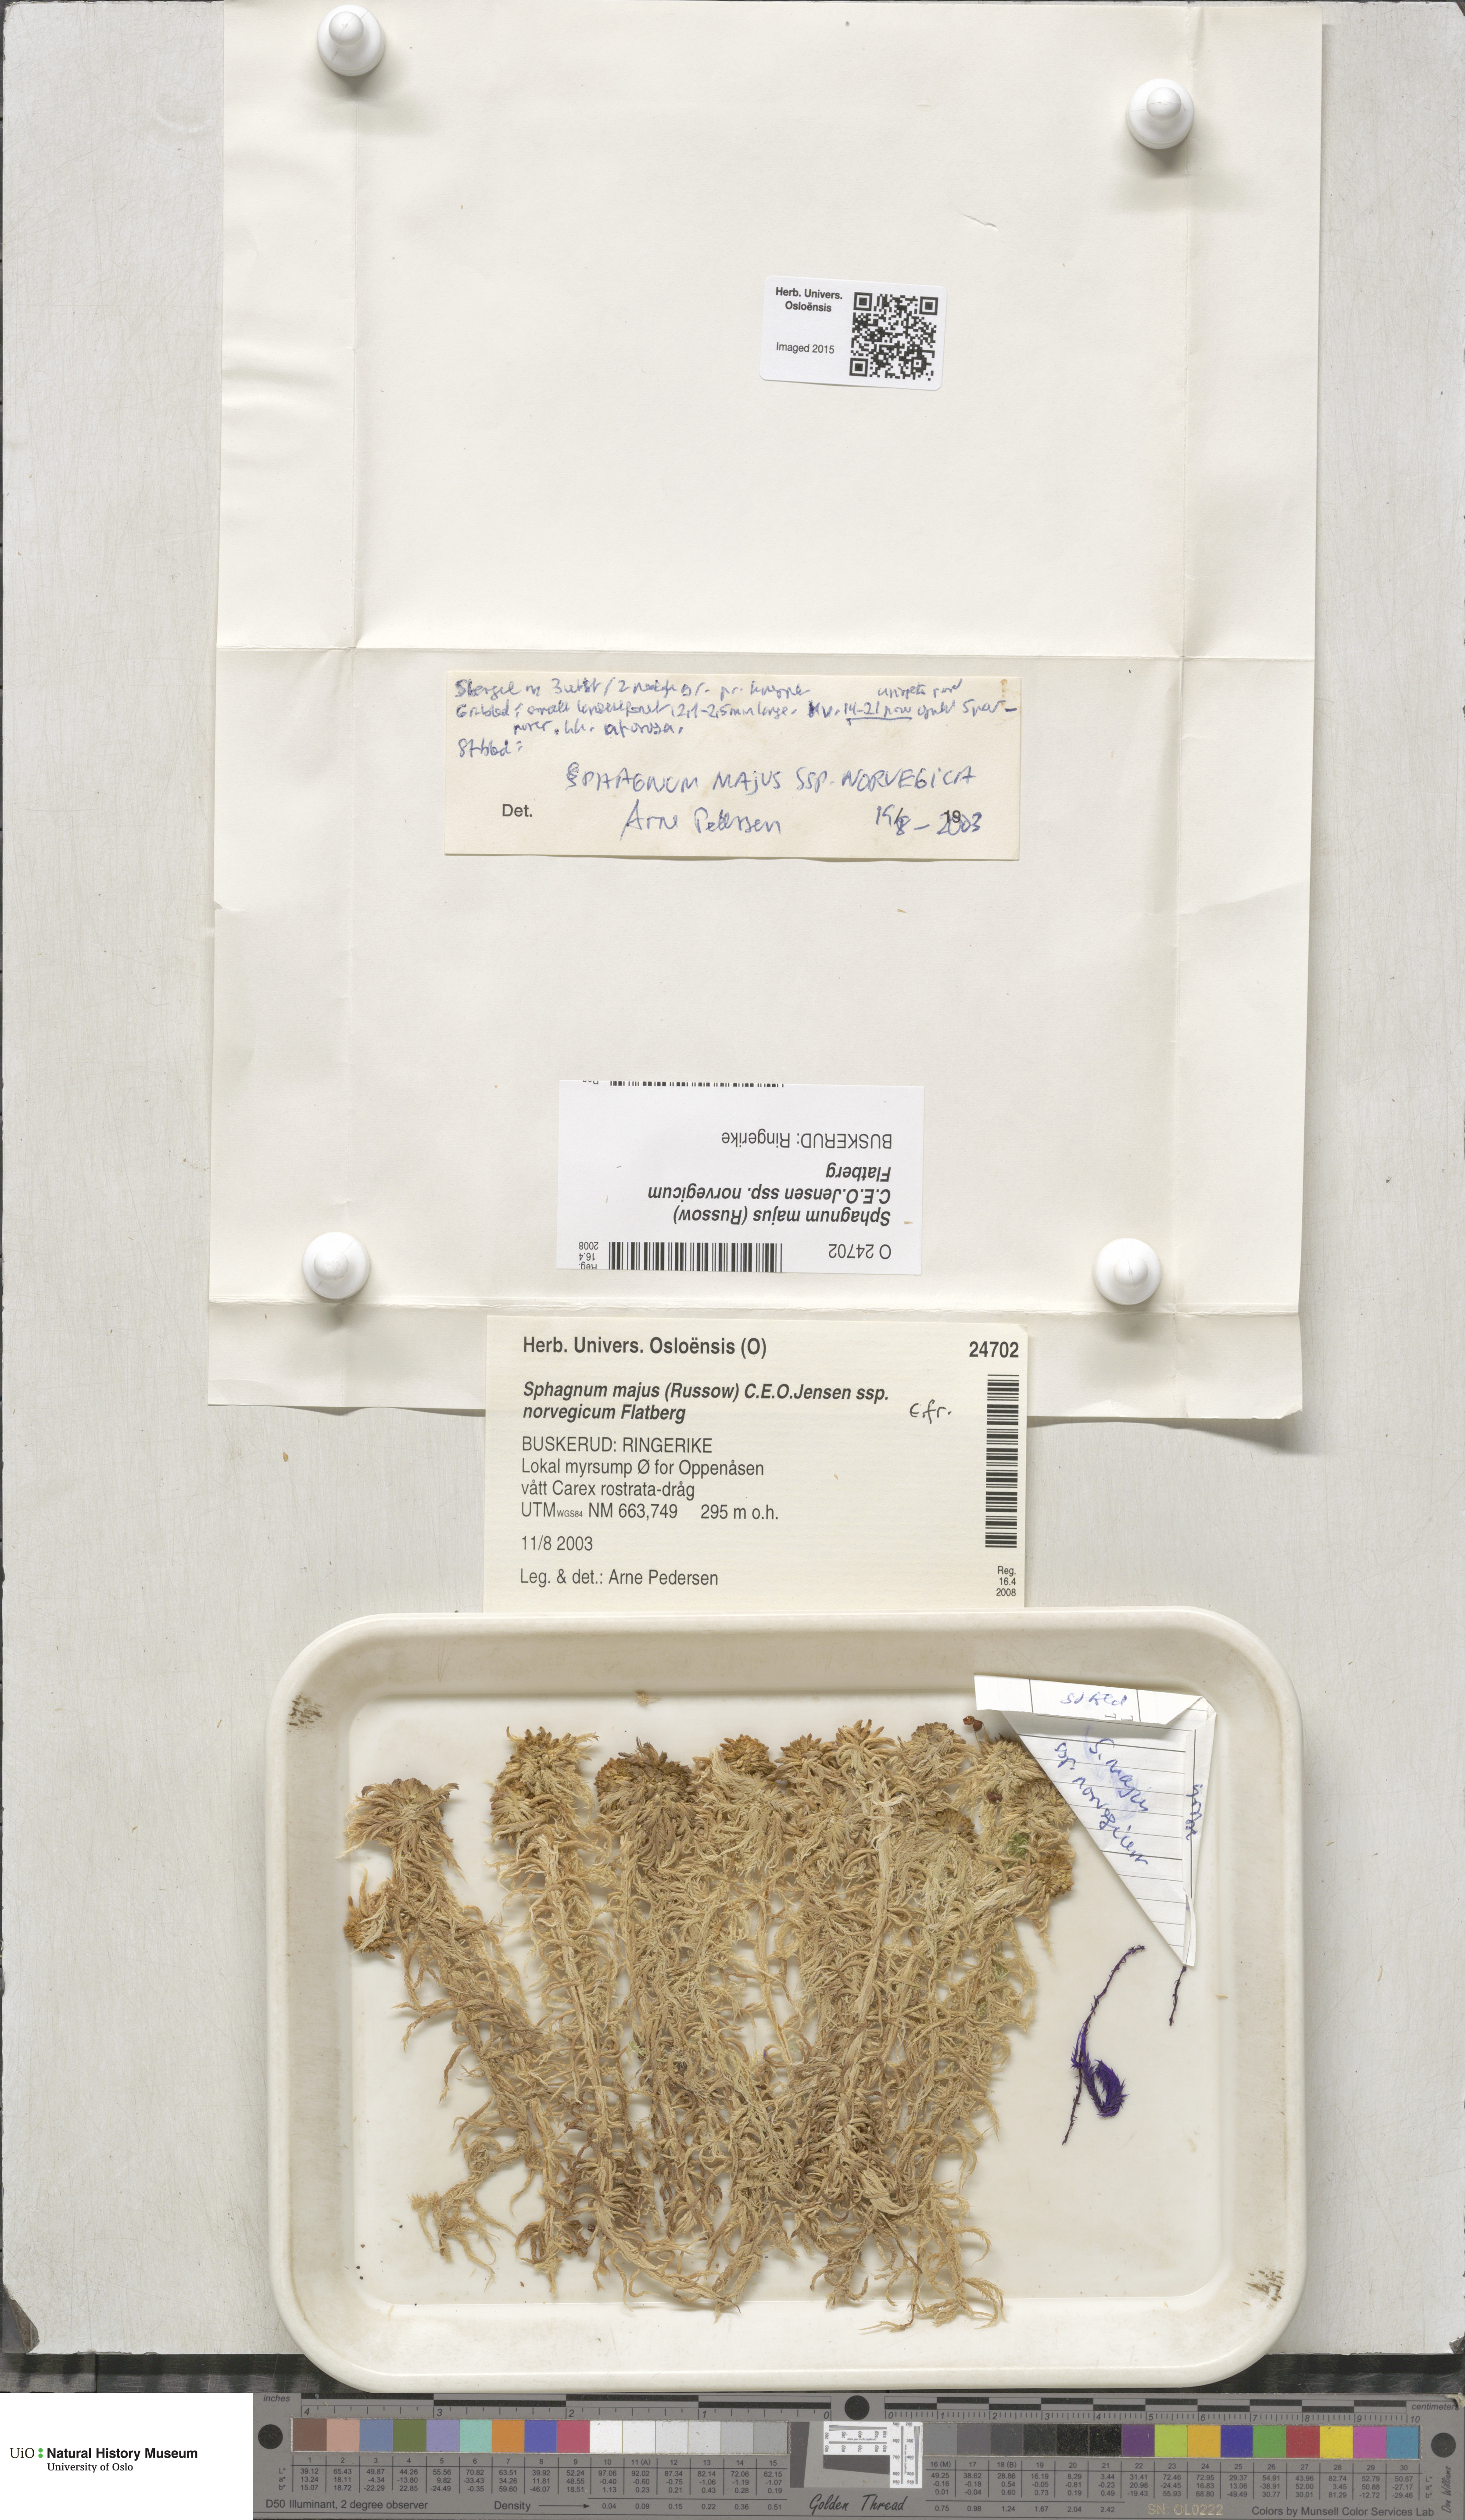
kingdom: Plantae
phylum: Bryophyta
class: Sphagnopsida
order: Sphagnales
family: Sphagnaceae
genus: Sphagnum
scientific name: Sphagnum majus
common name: Olive bog-moss
